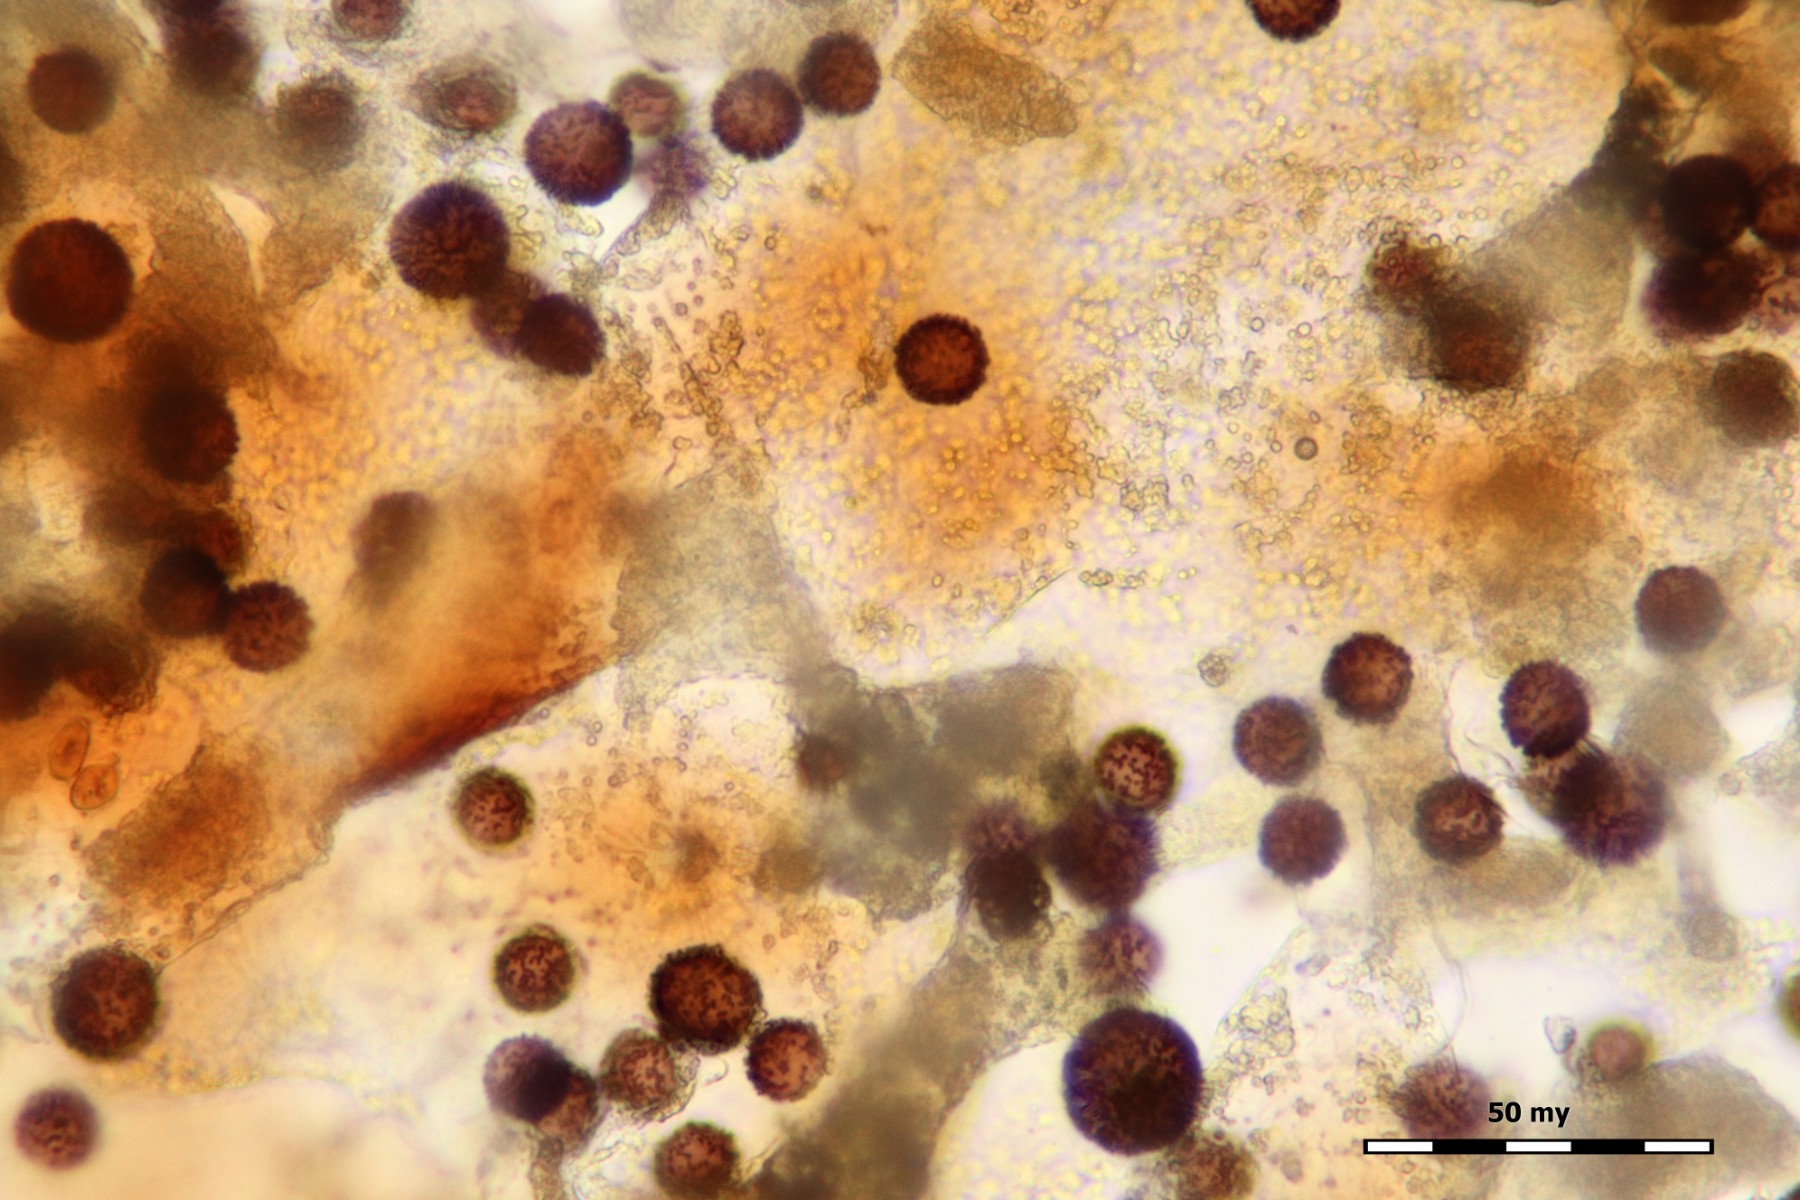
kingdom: Protozoa
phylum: Mycetozoa
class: Myxomycetes
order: Physarales
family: Physaraceae
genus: Craterium
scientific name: Craterium dictyosporum
